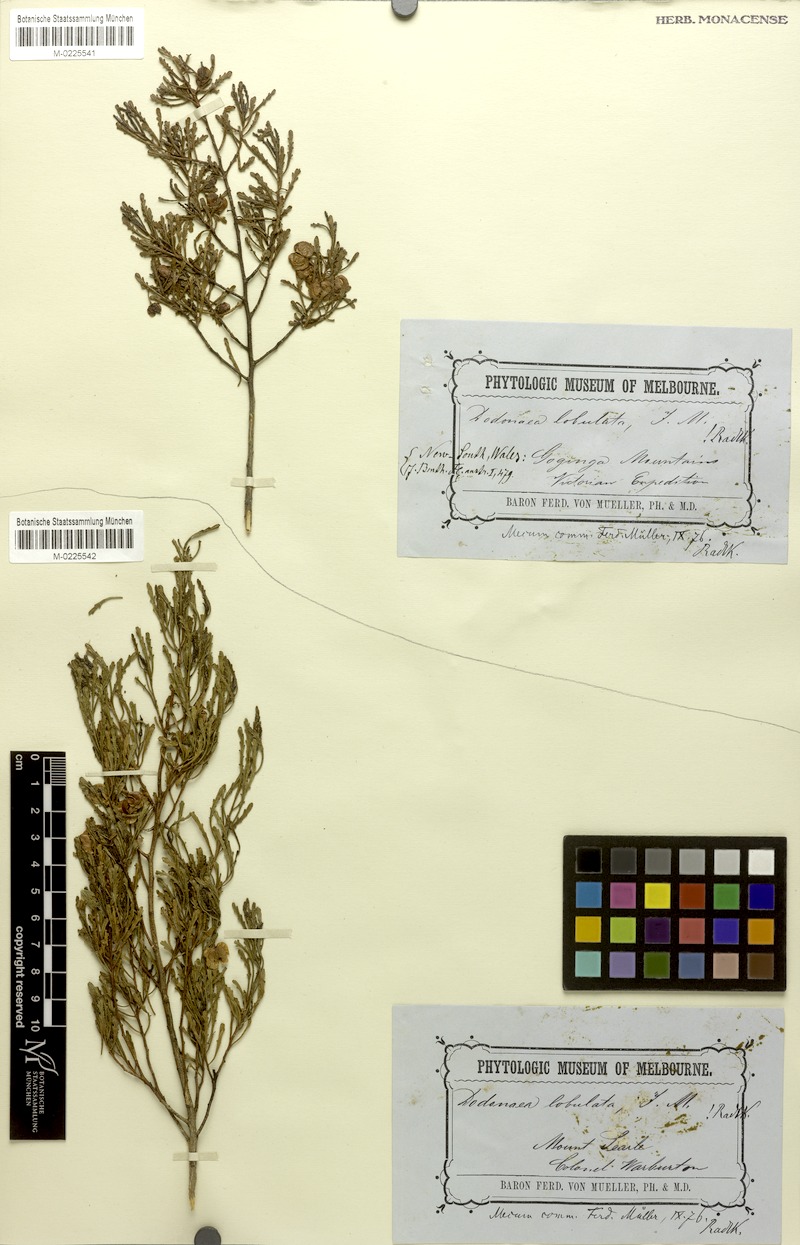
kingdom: Plantae
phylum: Tracheophyta
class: Magnoliopsida
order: Sapindales
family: Sapindaceae
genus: Dodonaea
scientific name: Dodonaea lobulata
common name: Lobe-leaf hopbush
